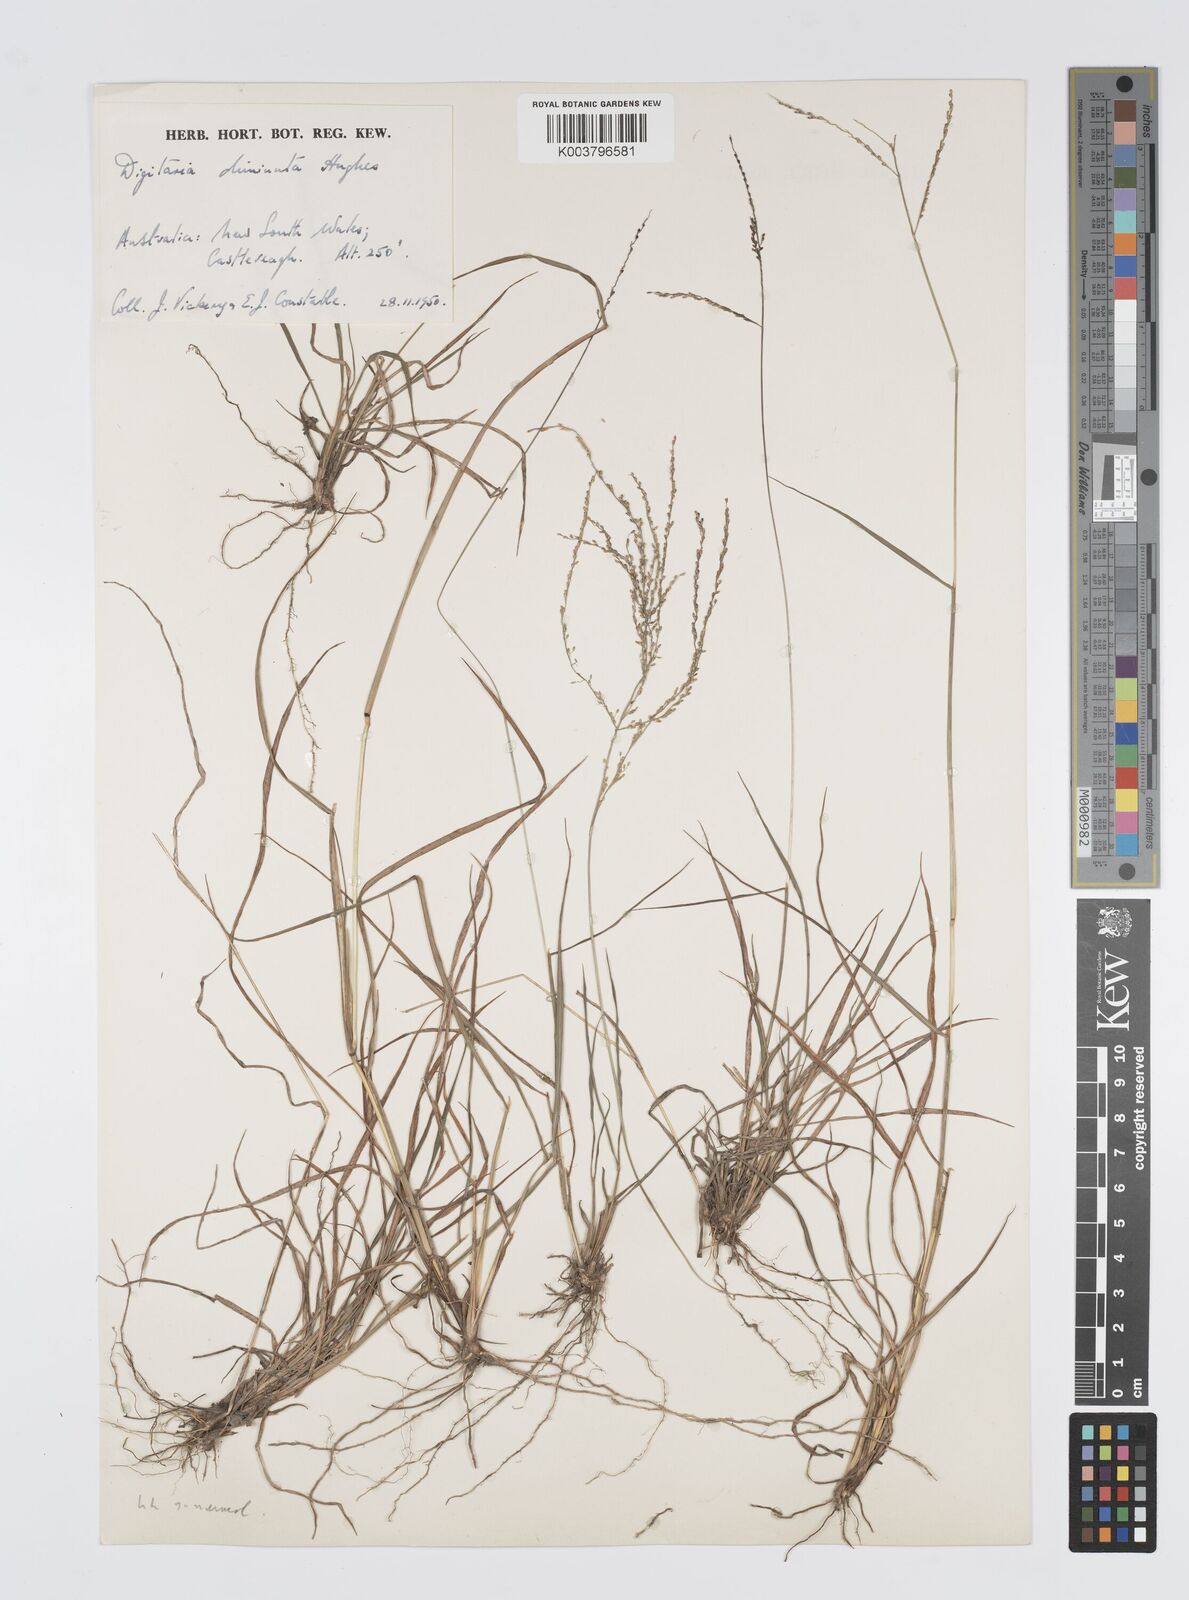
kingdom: Plantae
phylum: Tracheophyta
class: Liliopsida
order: Poales
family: Poaceae
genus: Digitaria
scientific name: Digitaria breviglumis
